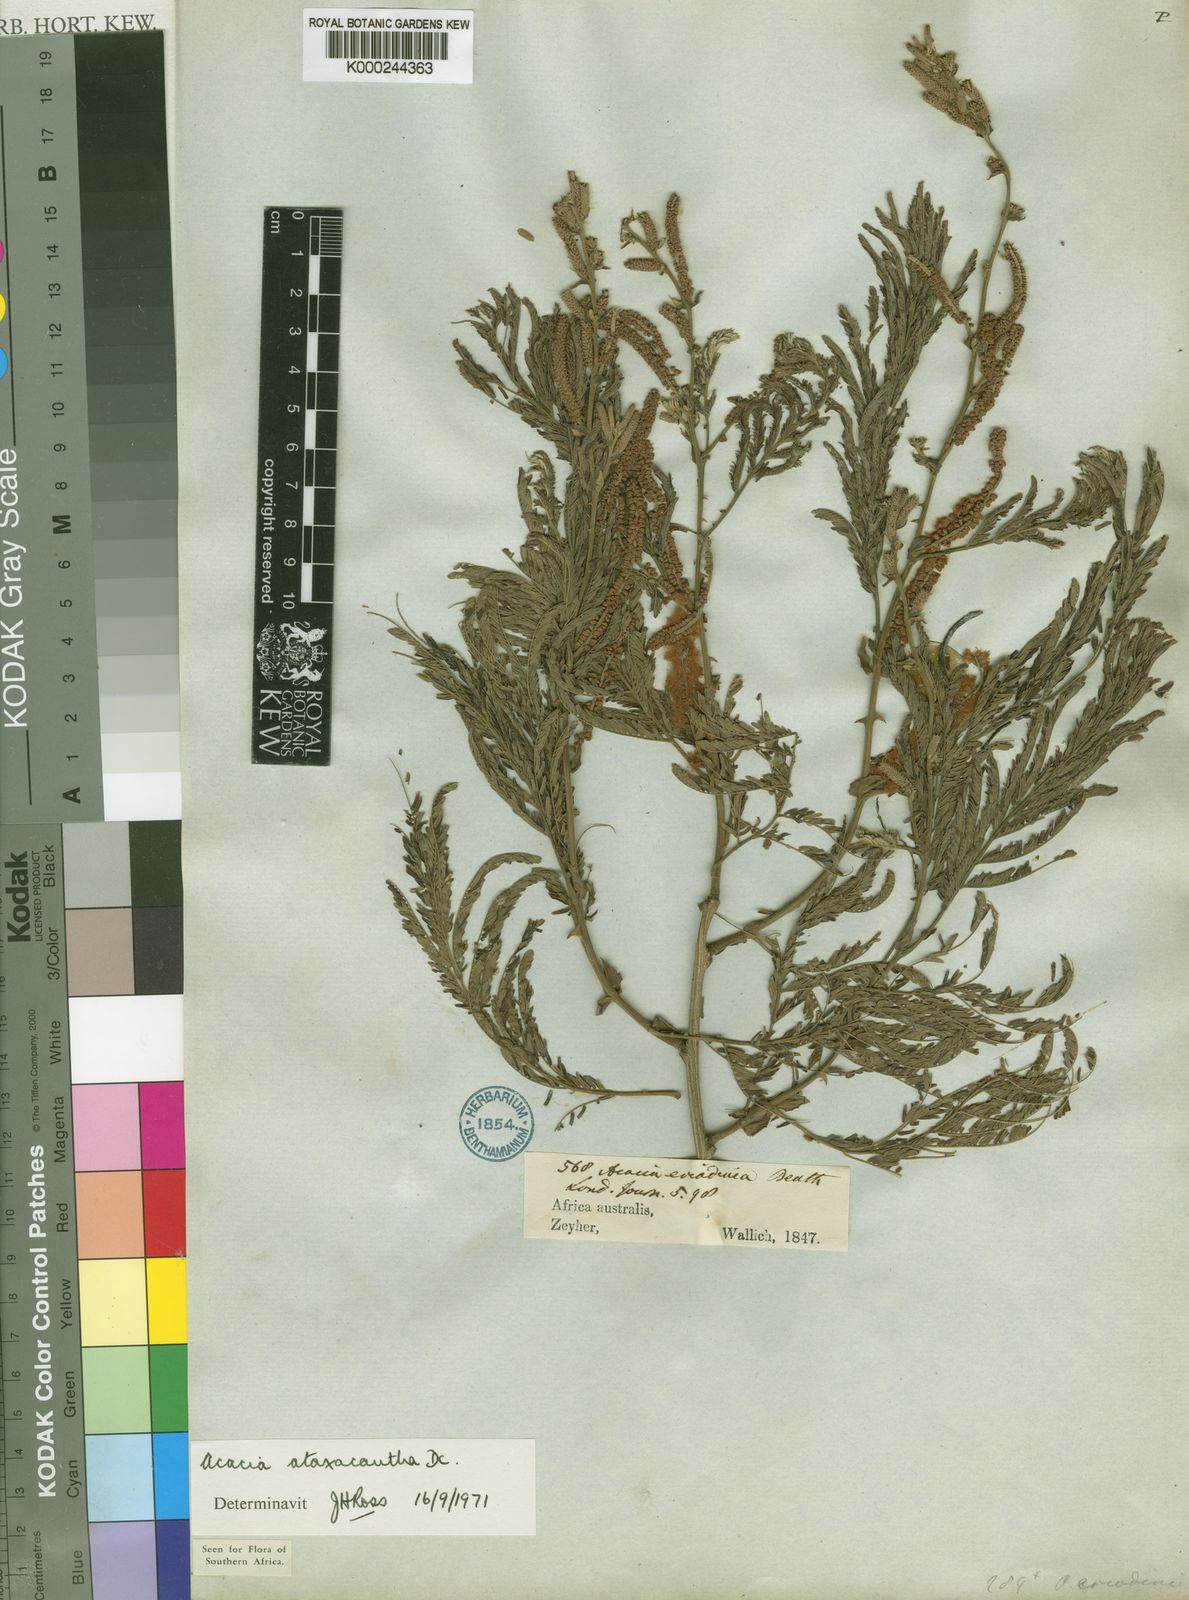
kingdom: Plantae
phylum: Tracheophyta
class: Magnoliopsida
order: Fabales
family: Fabaceae
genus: Senegalia
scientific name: Senegalia ataxacantha
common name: Flame acacia
